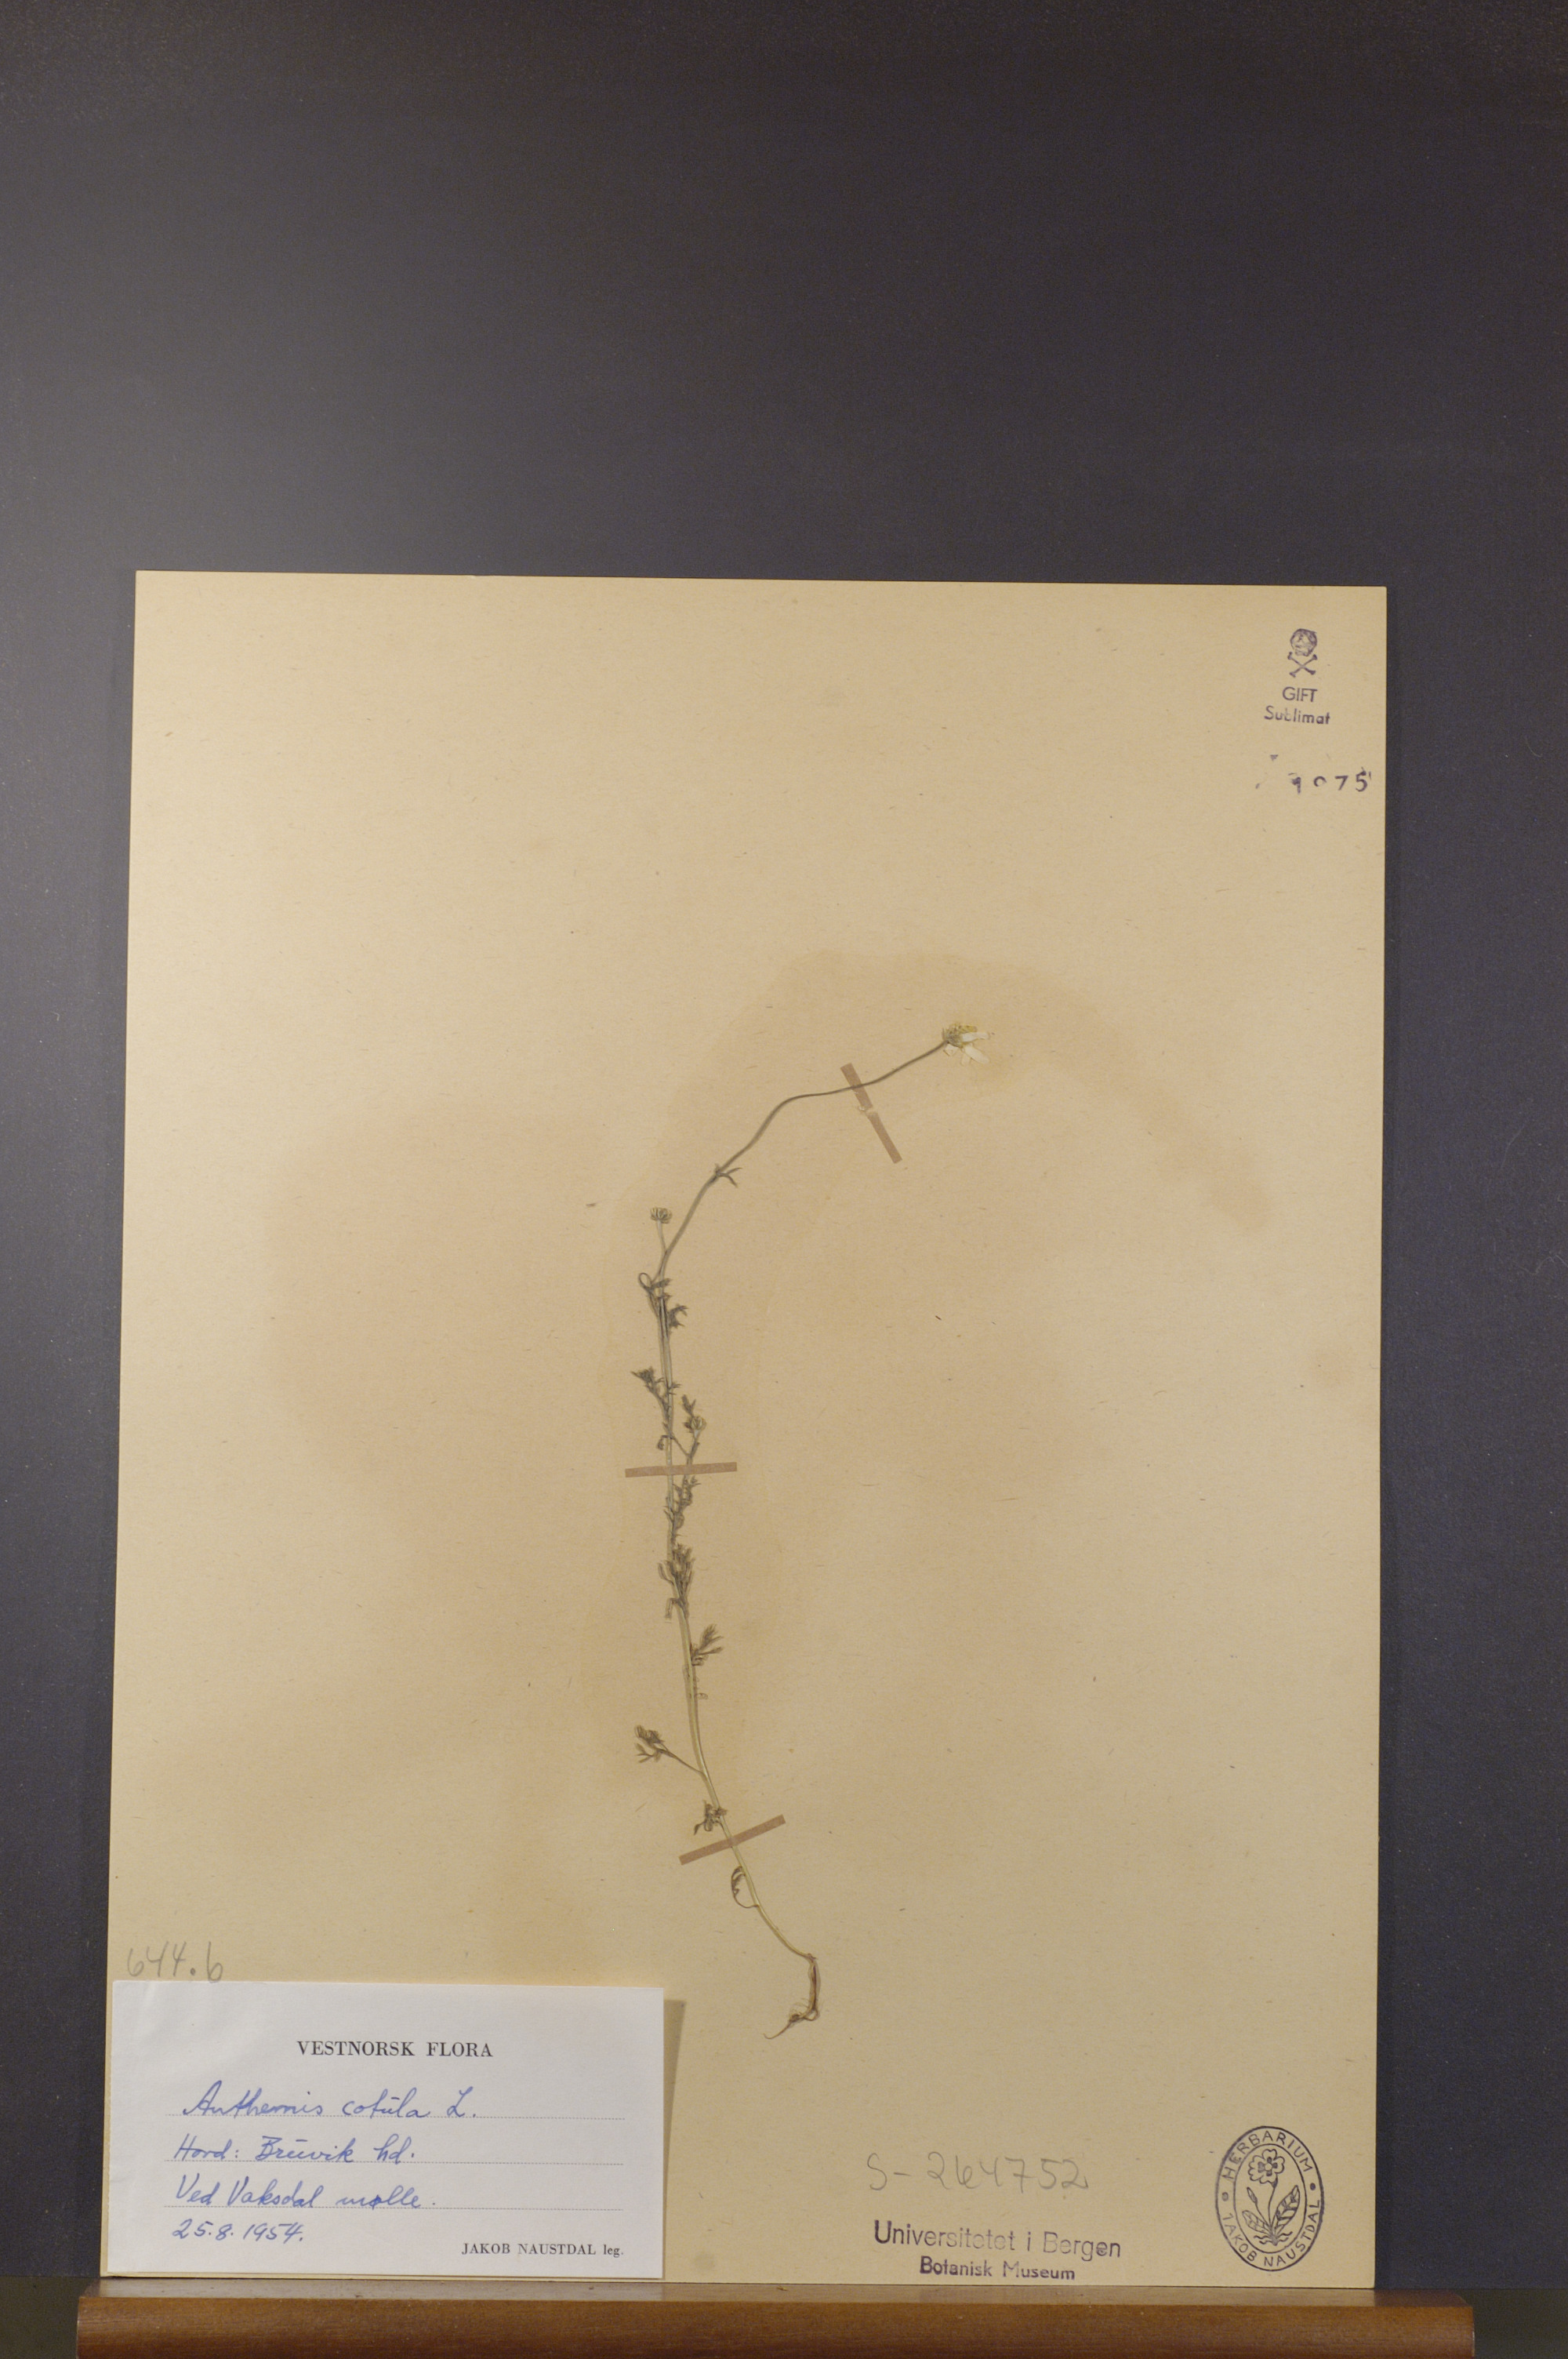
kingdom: Plantae
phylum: Tracheophyta
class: Magnoliopsida
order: Asterales
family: Asteraceae
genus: Anthemis
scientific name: Anthemis cotula
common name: Stinking chamomile
